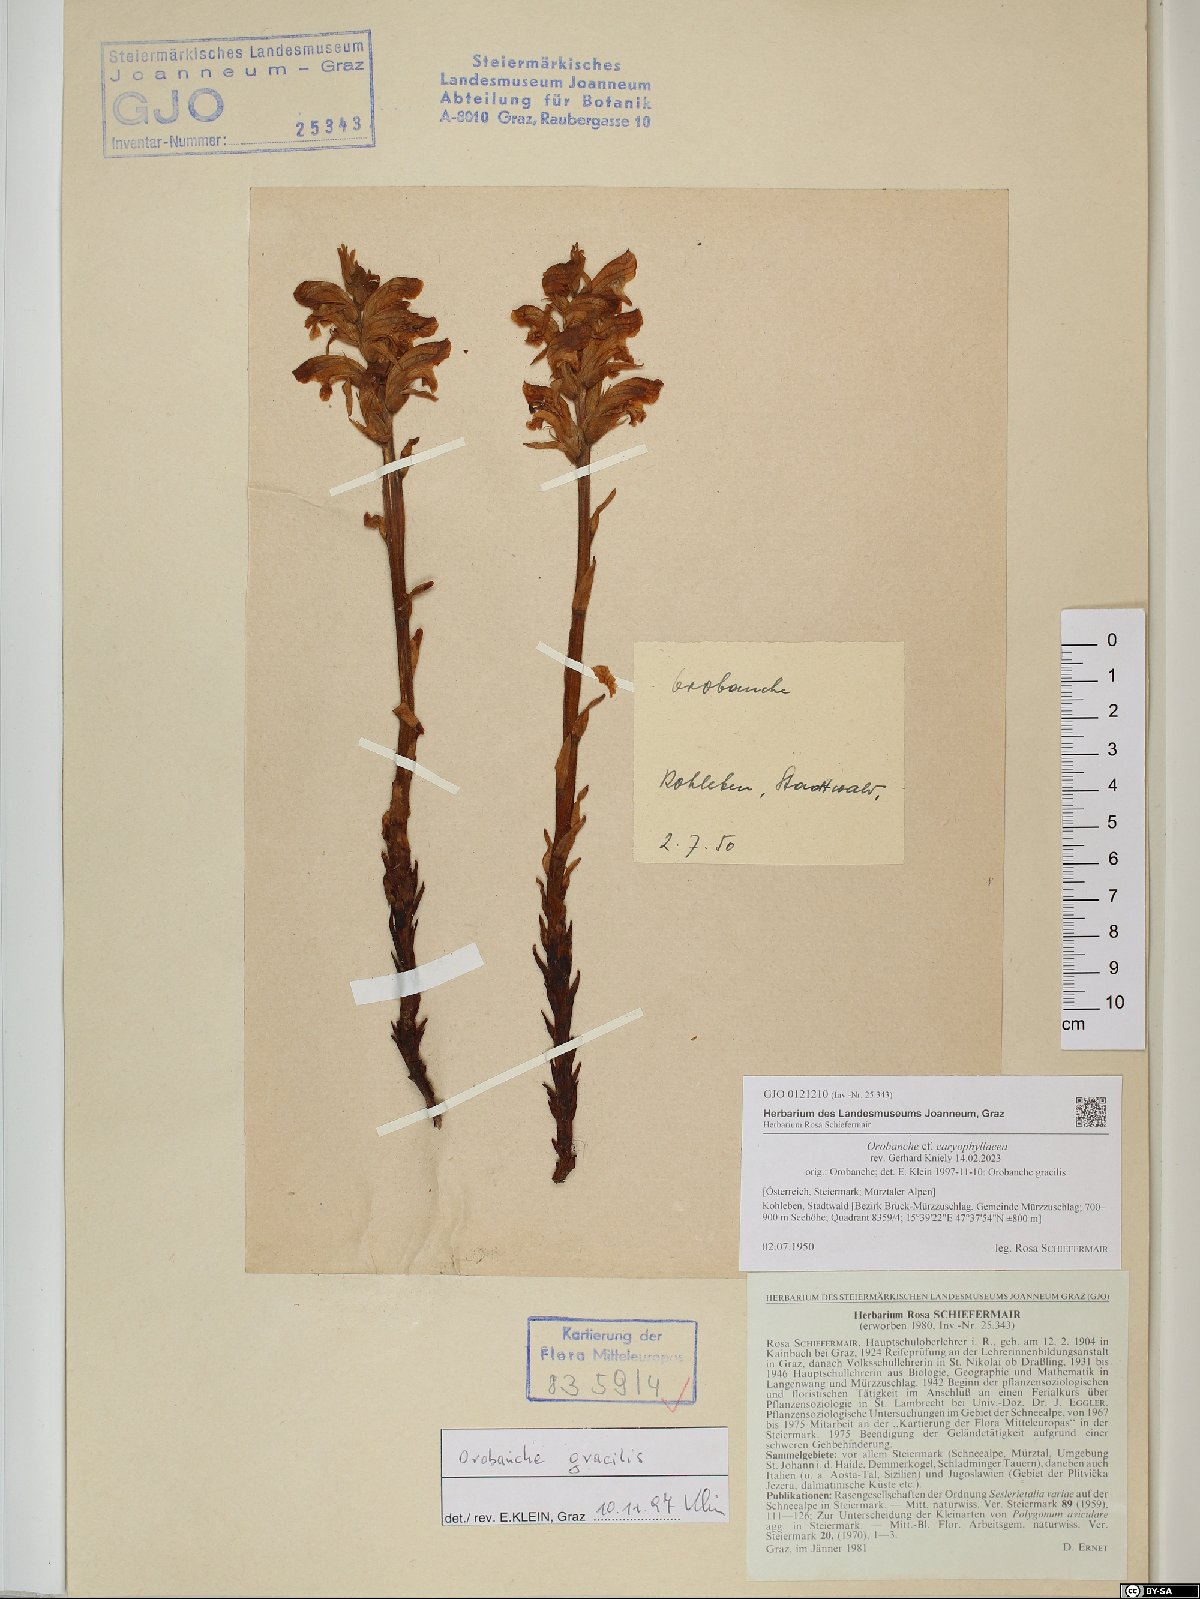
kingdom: Plantae
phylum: Tracheophyta
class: Magnoliopsida
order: Lamiales
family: Orobanchaceae
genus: Orobanche
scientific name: Orobanche caryophyllacea
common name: Bedstraw broomrape
